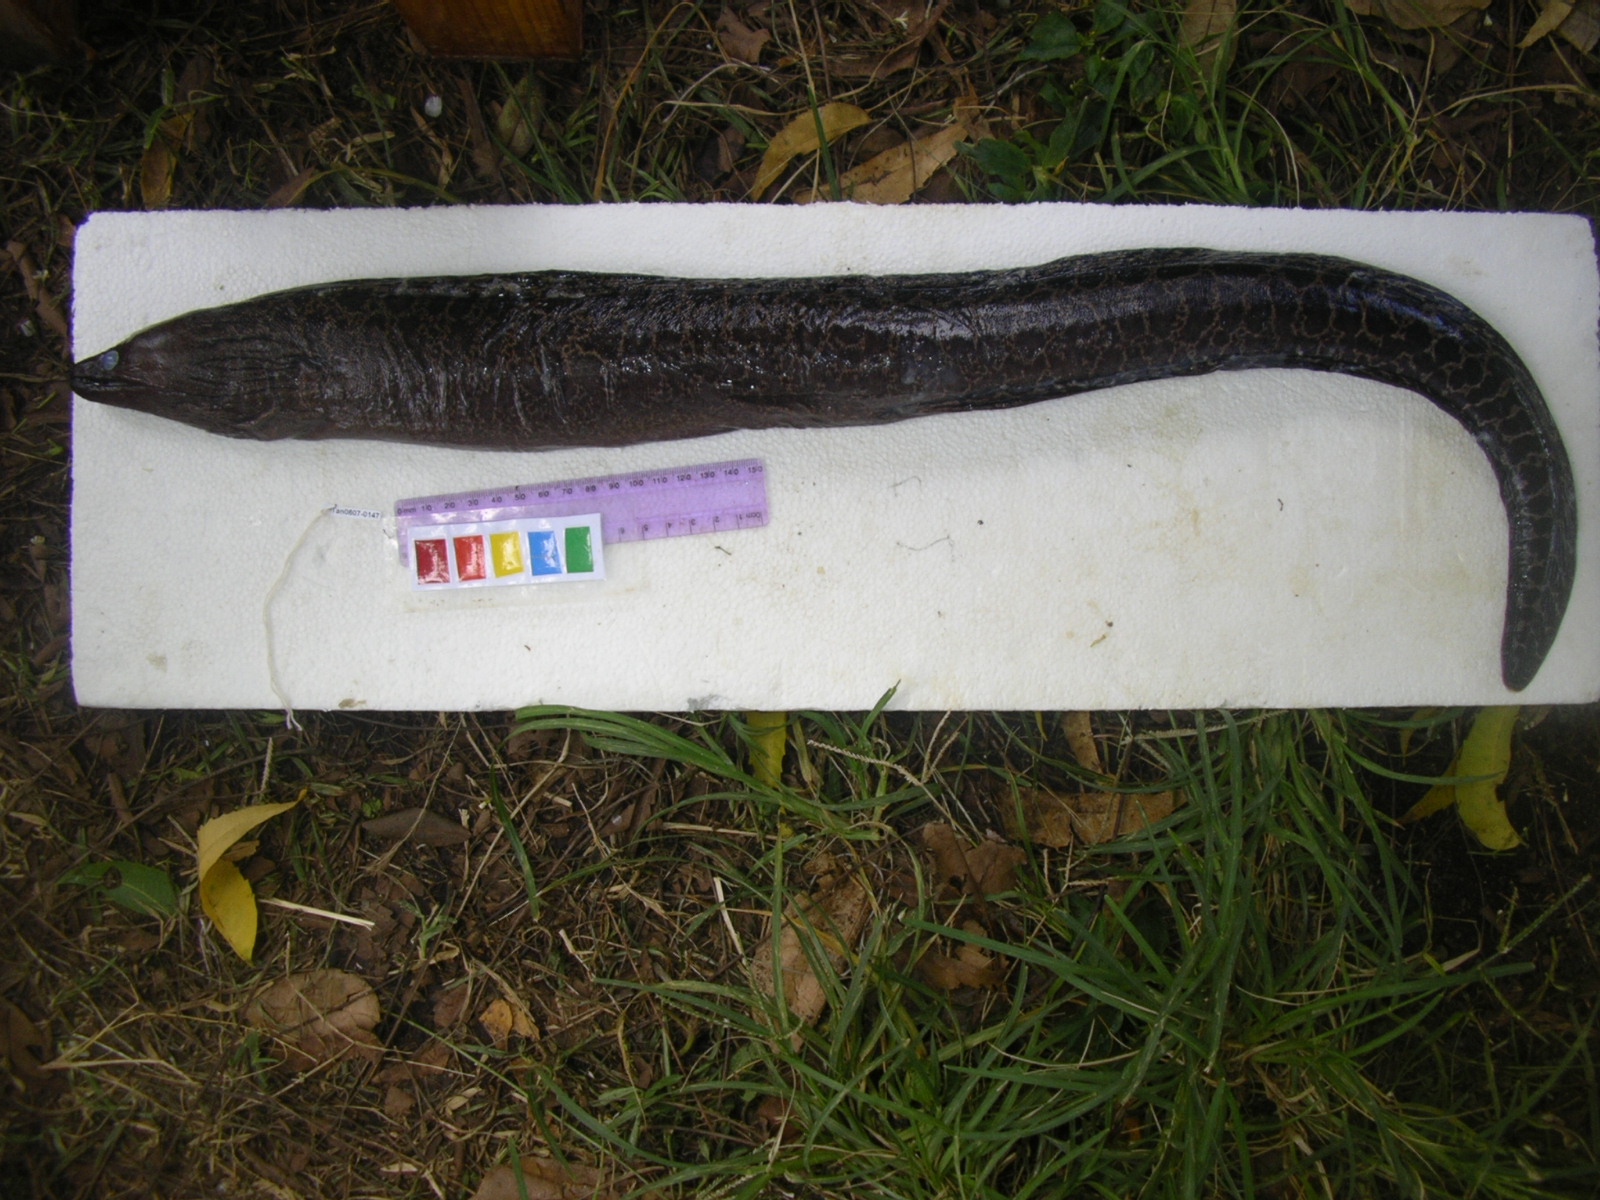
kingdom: Animalia
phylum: Chordata
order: Anguilliformes
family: Muraenidae
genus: Gymnothorax
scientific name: Gymnothorax undulatus
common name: Leopard moray
